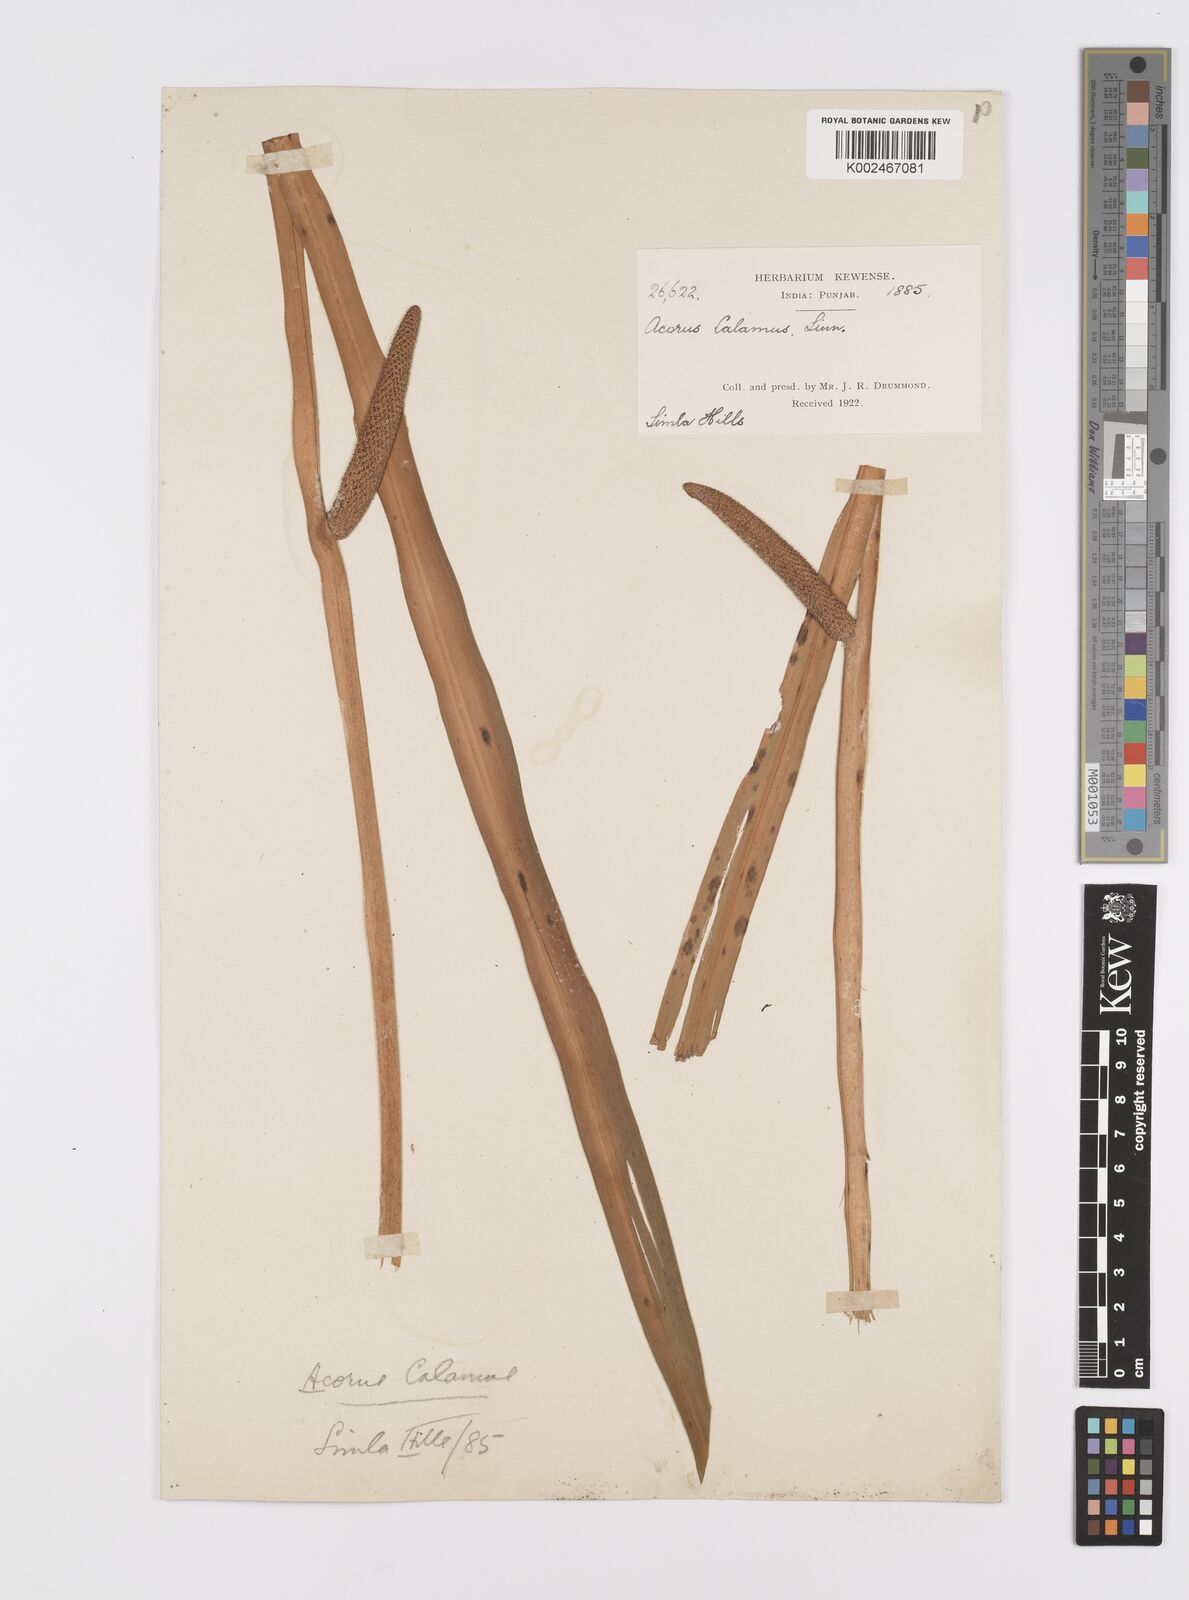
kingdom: Plantae
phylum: Tracheophyta
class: Liliopsida
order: Acorales
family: Acoraceae
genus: Acorus
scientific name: Acorus calamus
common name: Sweet-flag
